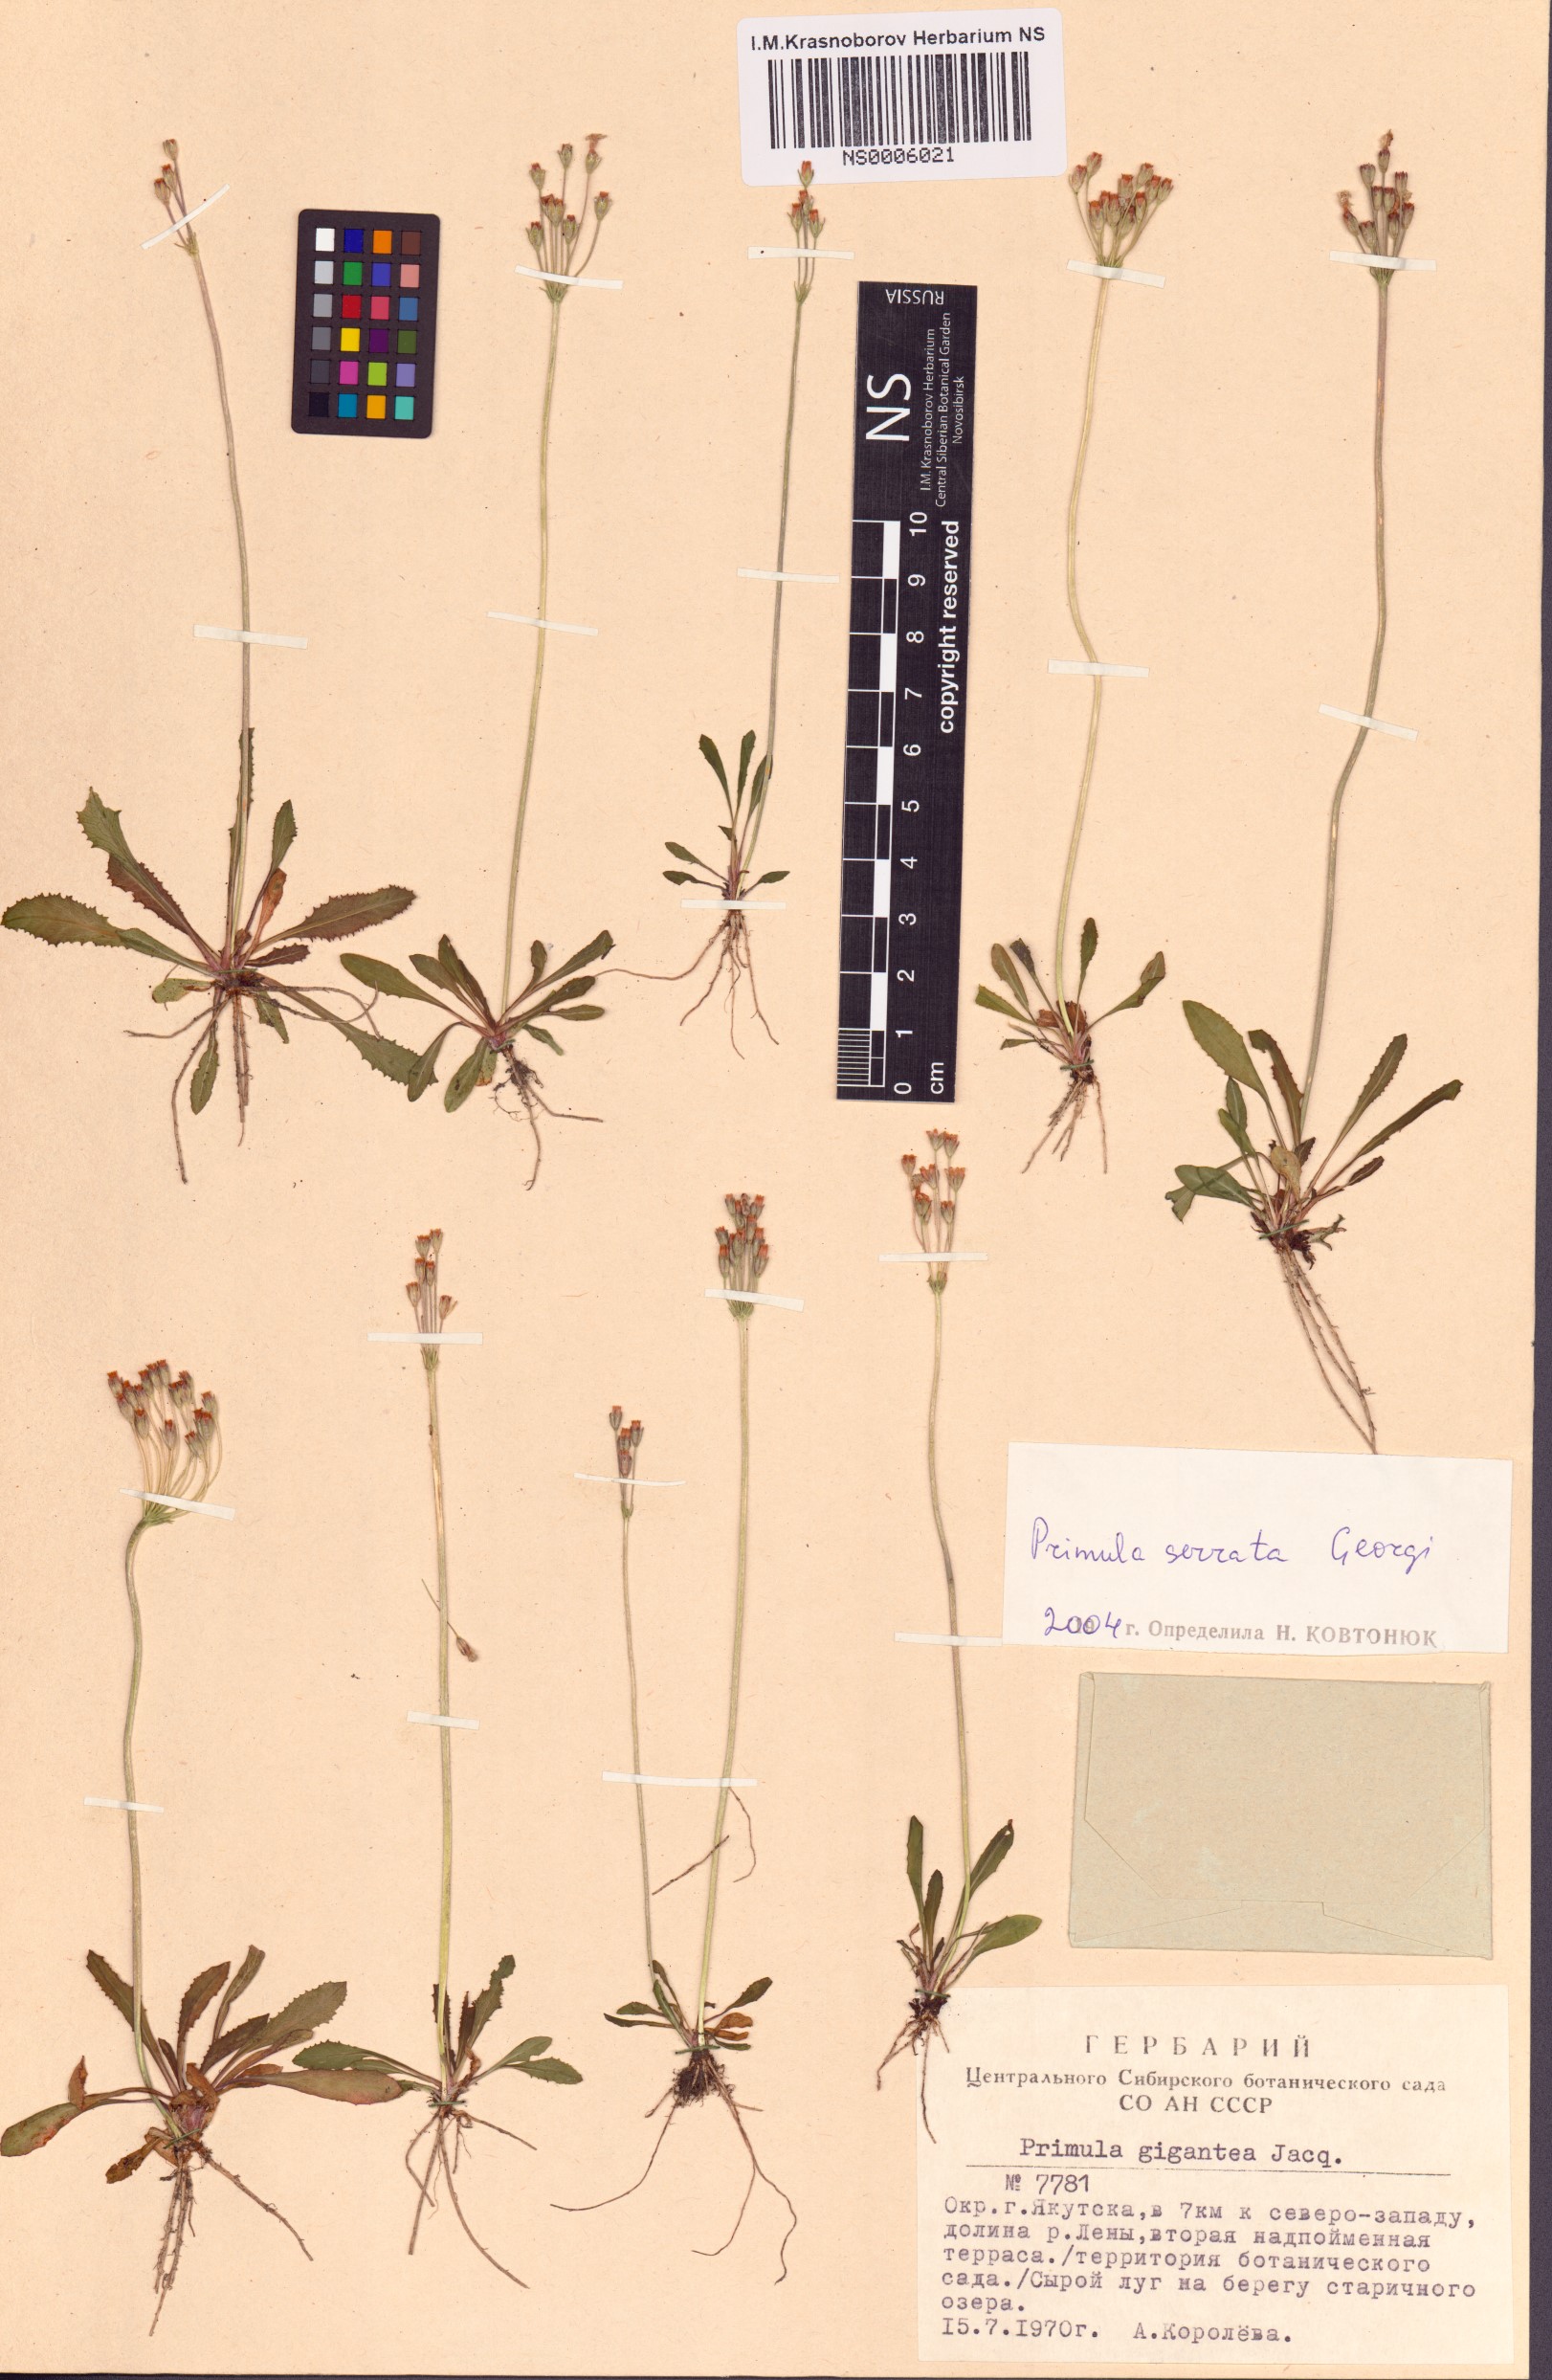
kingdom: Plantae
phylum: Tracheophyta
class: Magnoliopsida
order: Ericales
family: Primulaceae
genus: Primula
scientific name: Primula serrata
